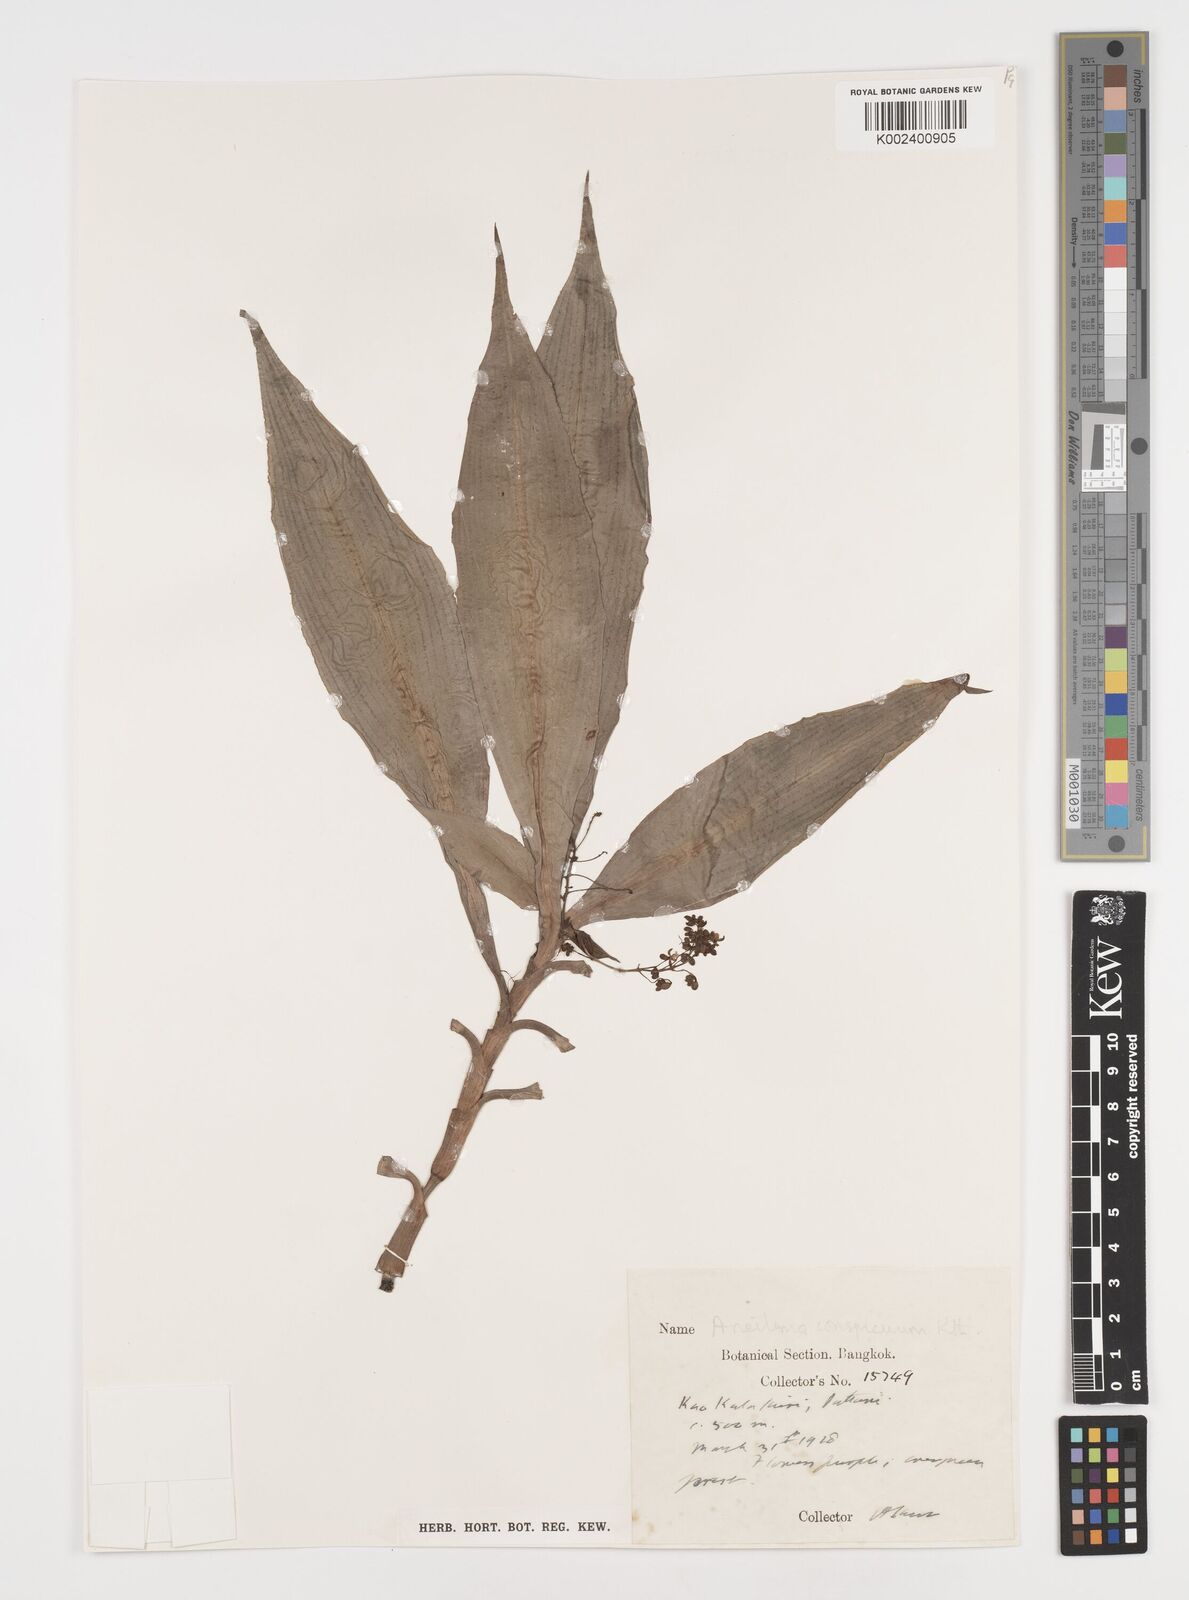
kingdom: Plantae
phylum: Tracheophyta
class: Liliopsida
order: Commelinales
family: Commelinaceae
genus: Dictyospermum
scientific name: Dictyospermum conspicuum
